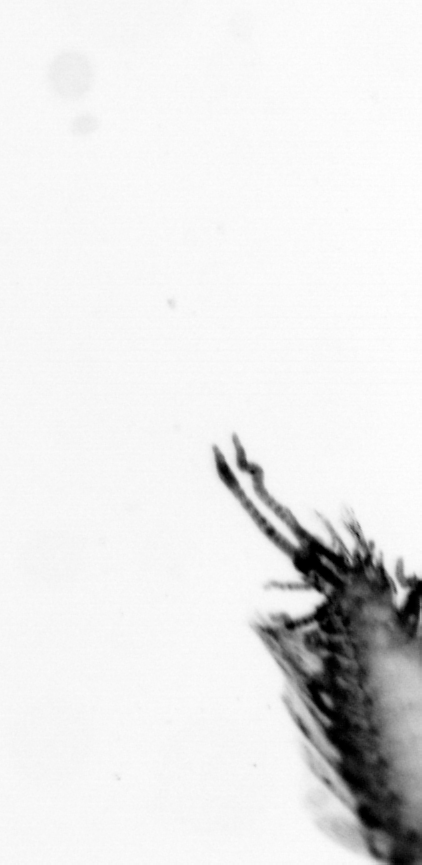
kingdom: Animalia
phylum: Annelida
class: Polychaeta
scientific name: Polychaeta
